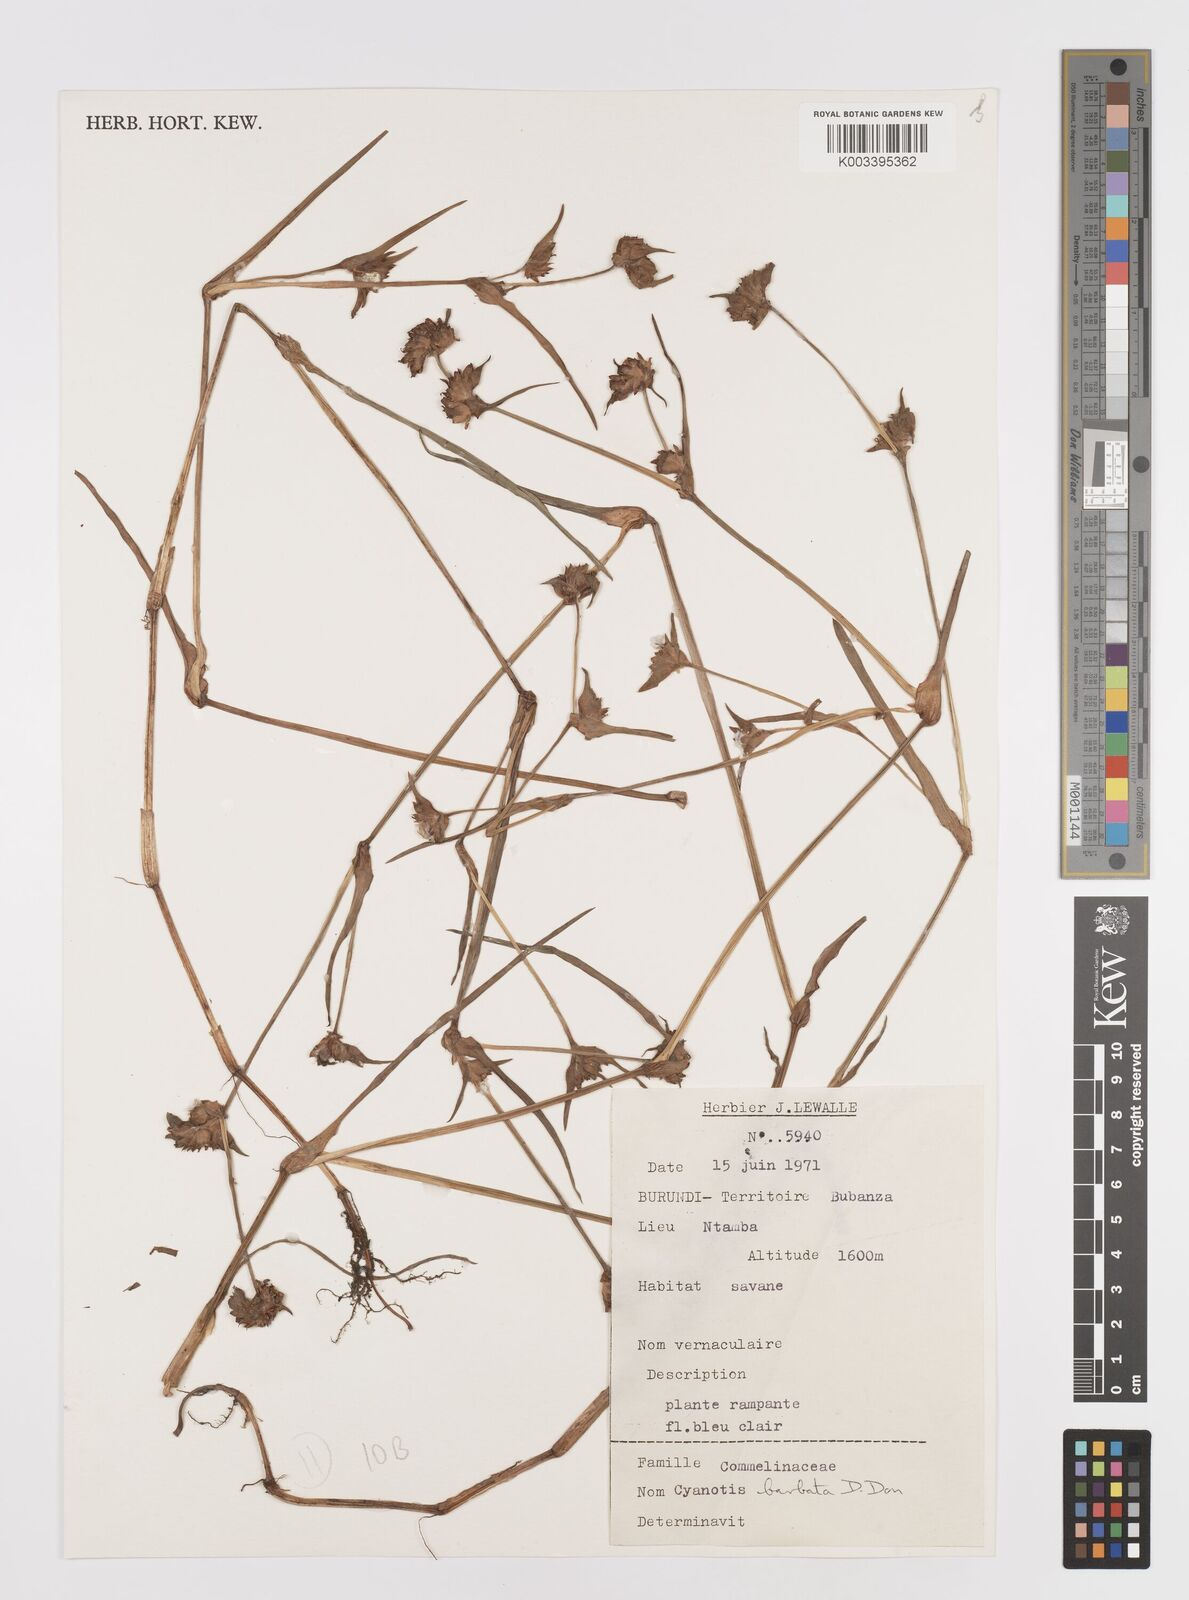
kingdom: Plantae
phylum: Tracheophyta
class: Liliopsida
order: Commelinales
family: Commelinaceae
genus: Cyanotis
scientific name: Cyanotis vaga
